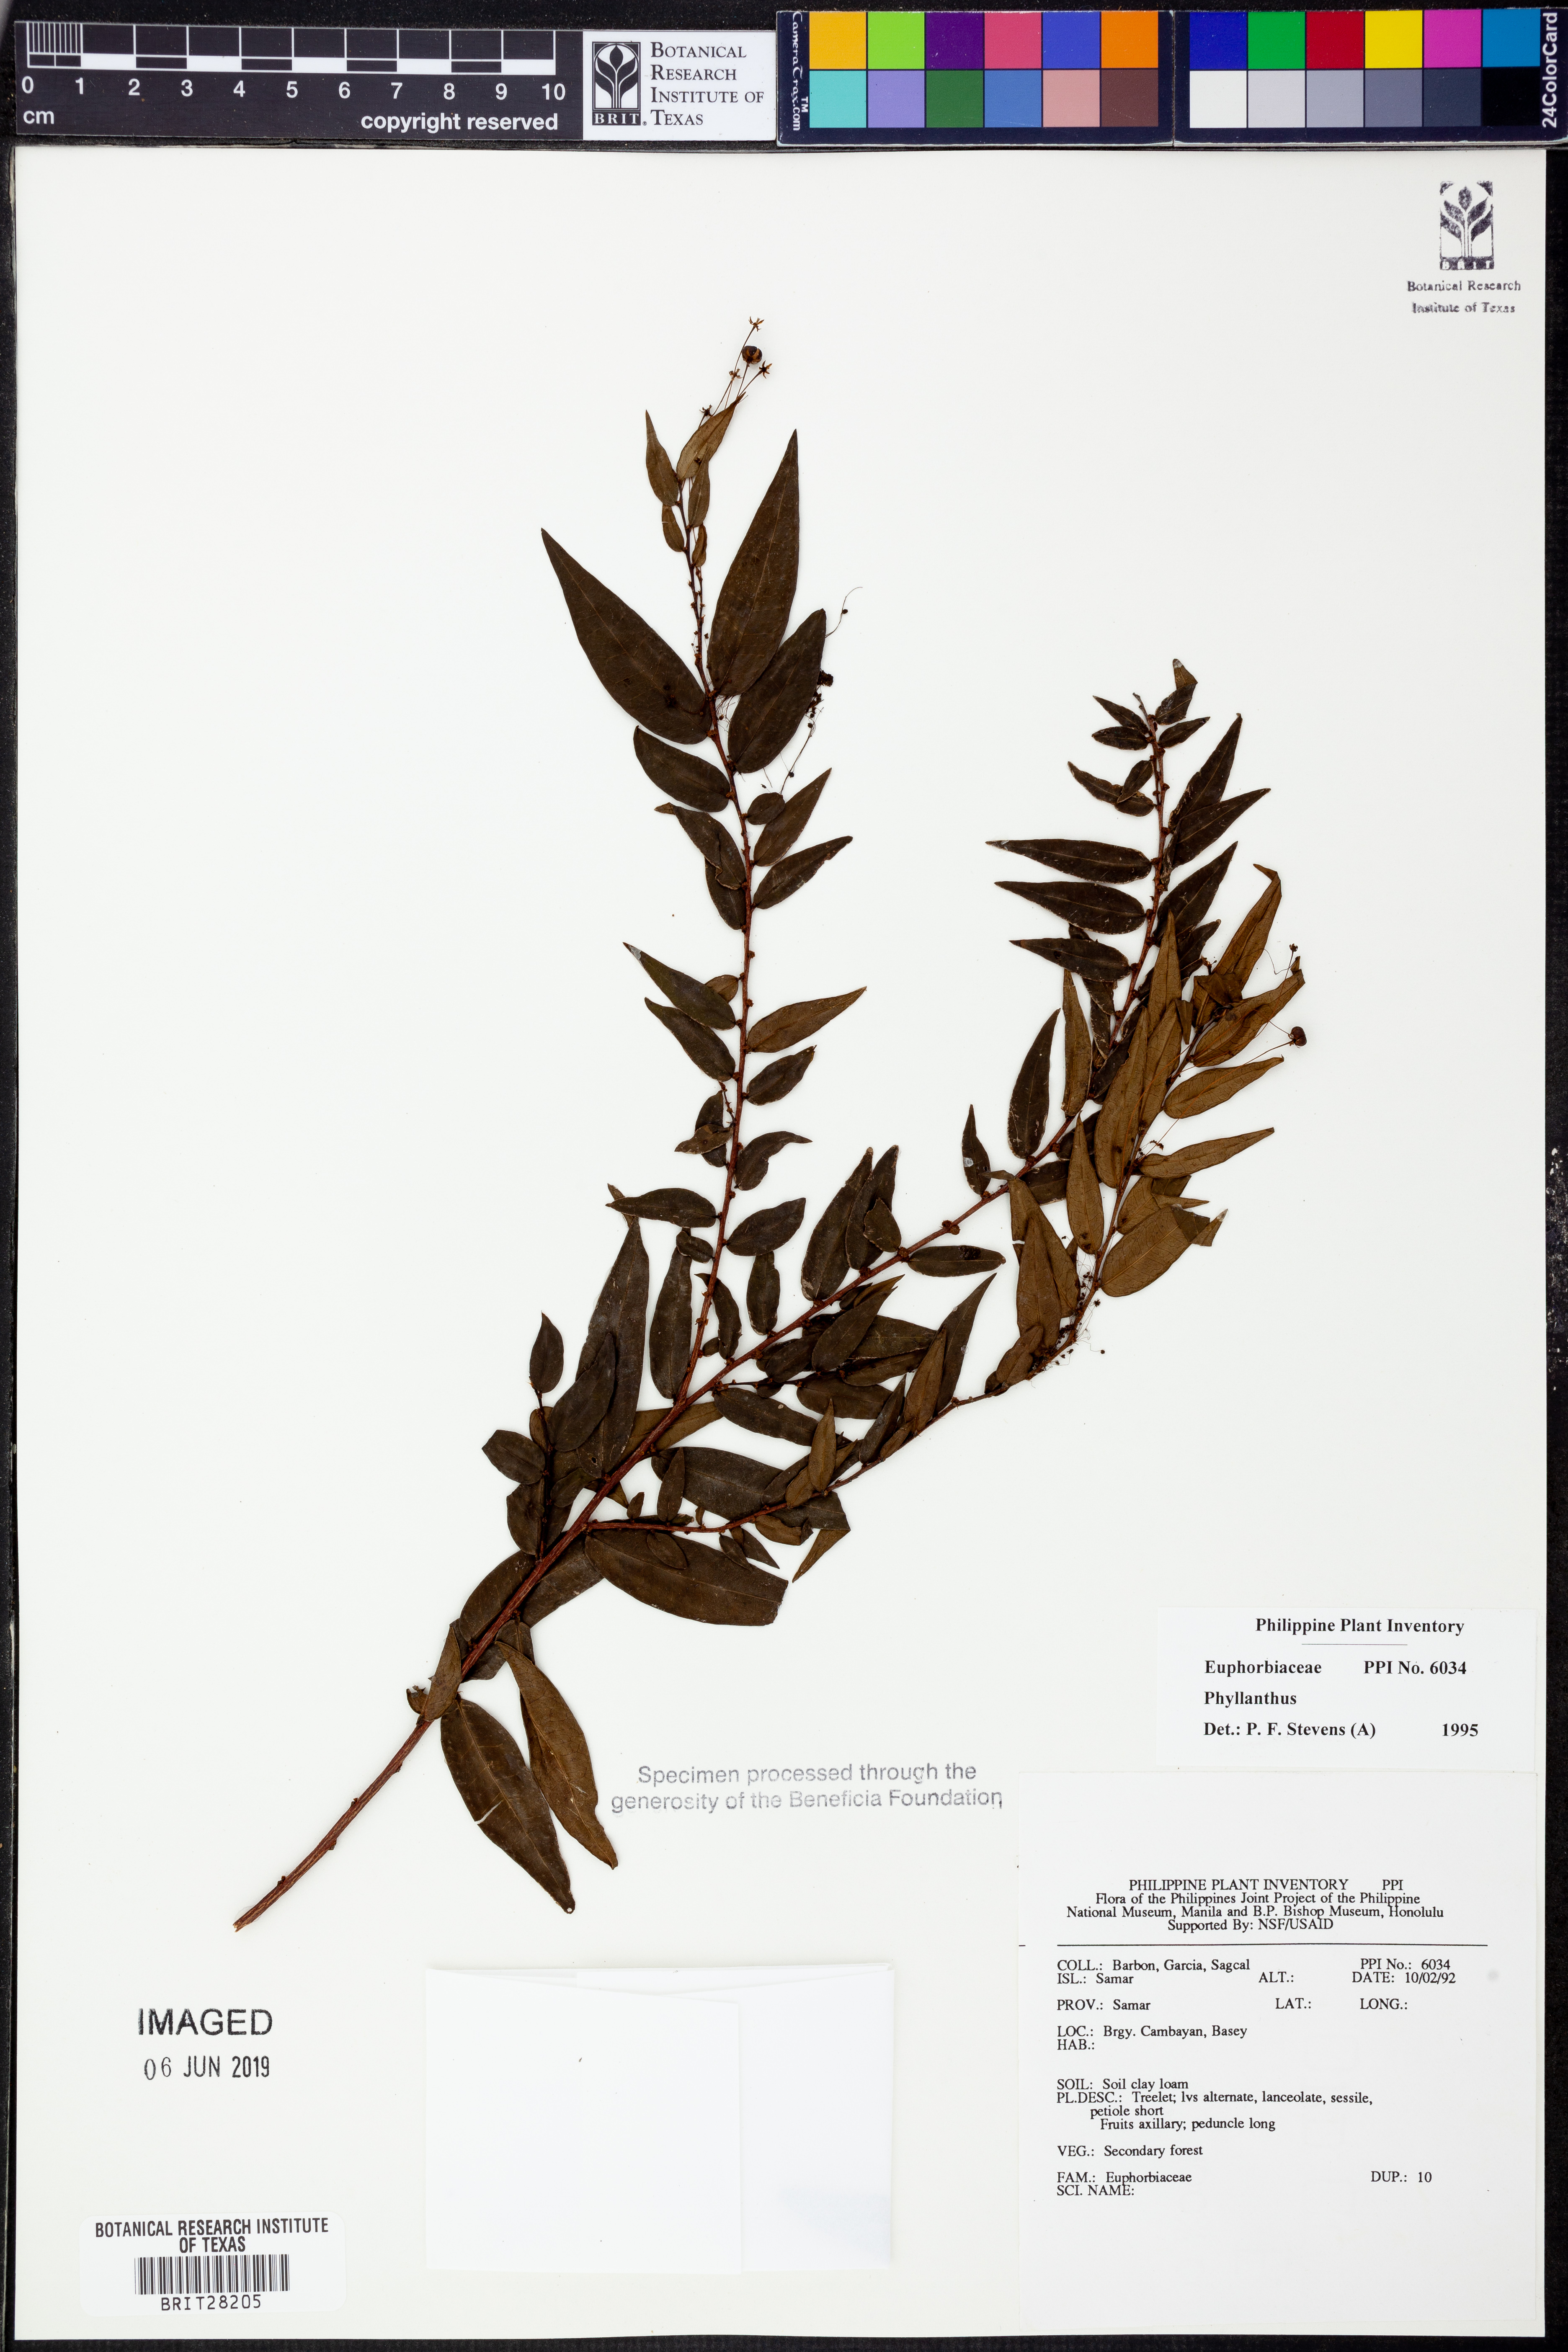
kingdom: Plantae
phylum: Tracheophyta
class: Magnoliopsida
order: Malpighiales
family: Phyllanthaceae
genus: Phyllanthus
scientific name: Phyllanthus
